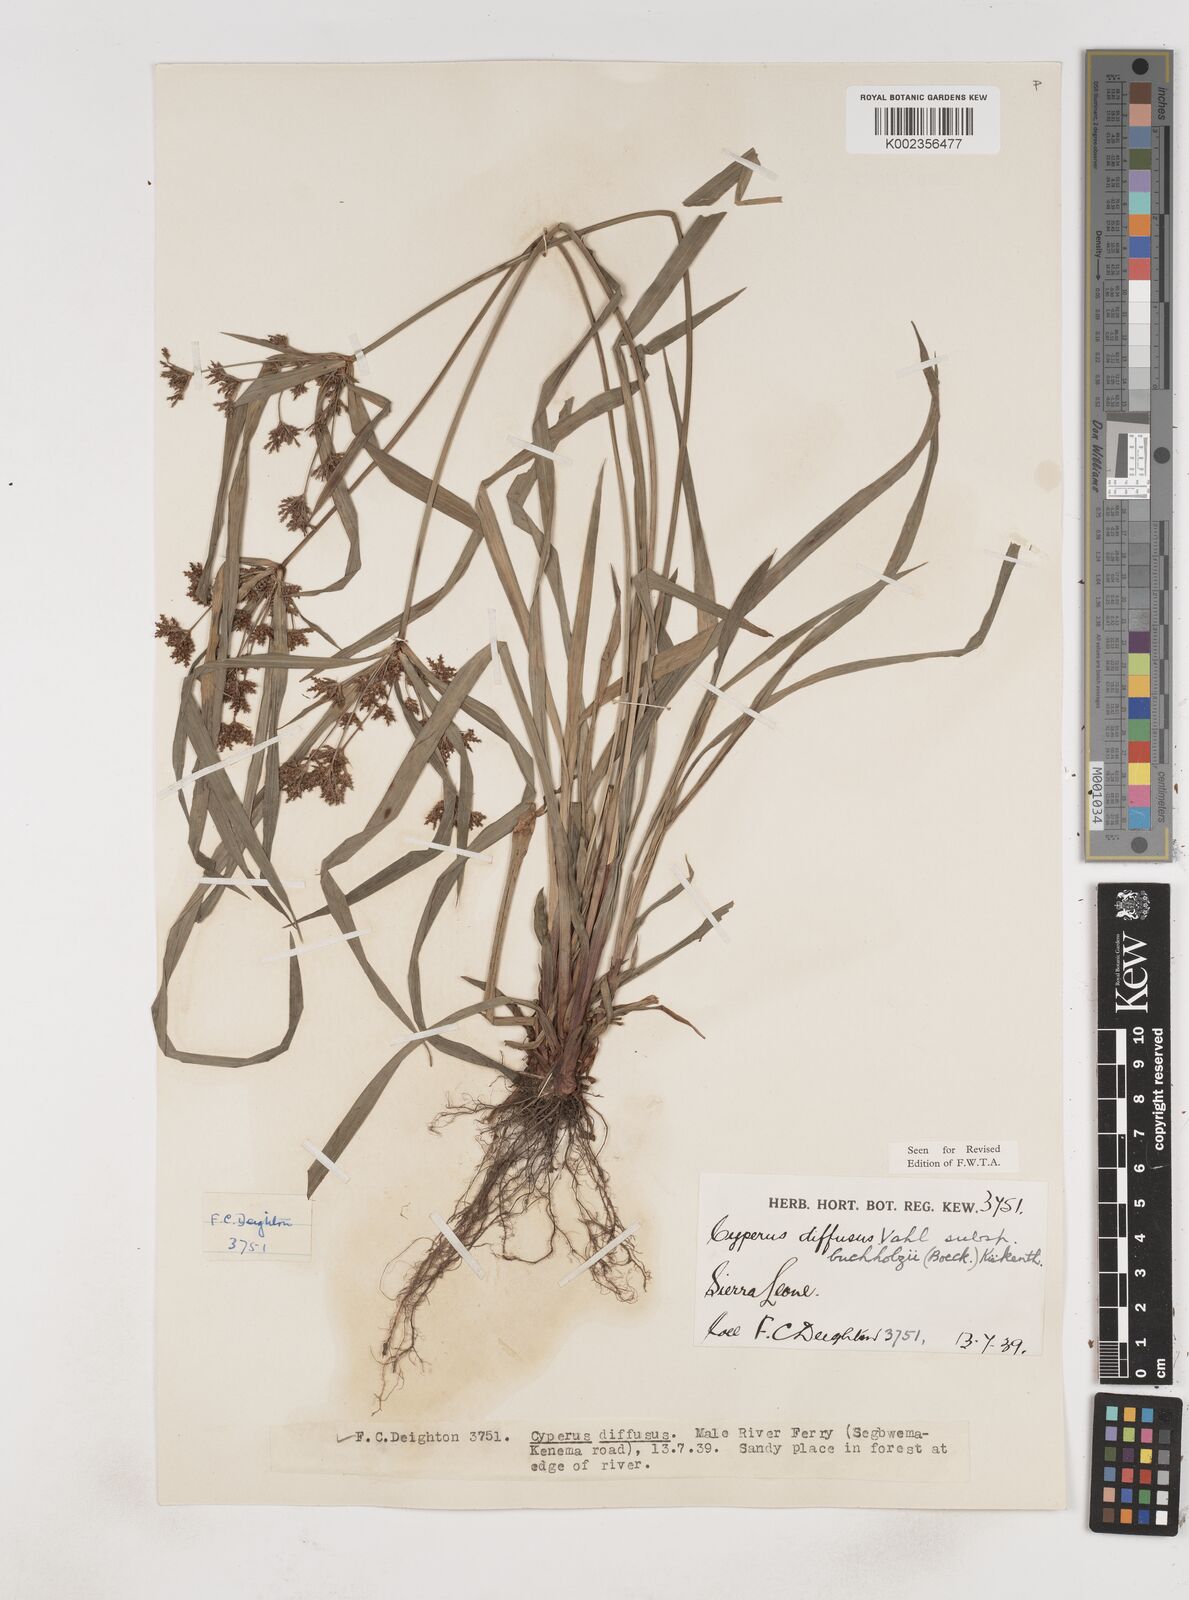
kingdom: Plantae
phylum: Tracheophyta
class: Liliopsida
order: Poales
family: Cyperaceae
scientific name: Cyperaceae
